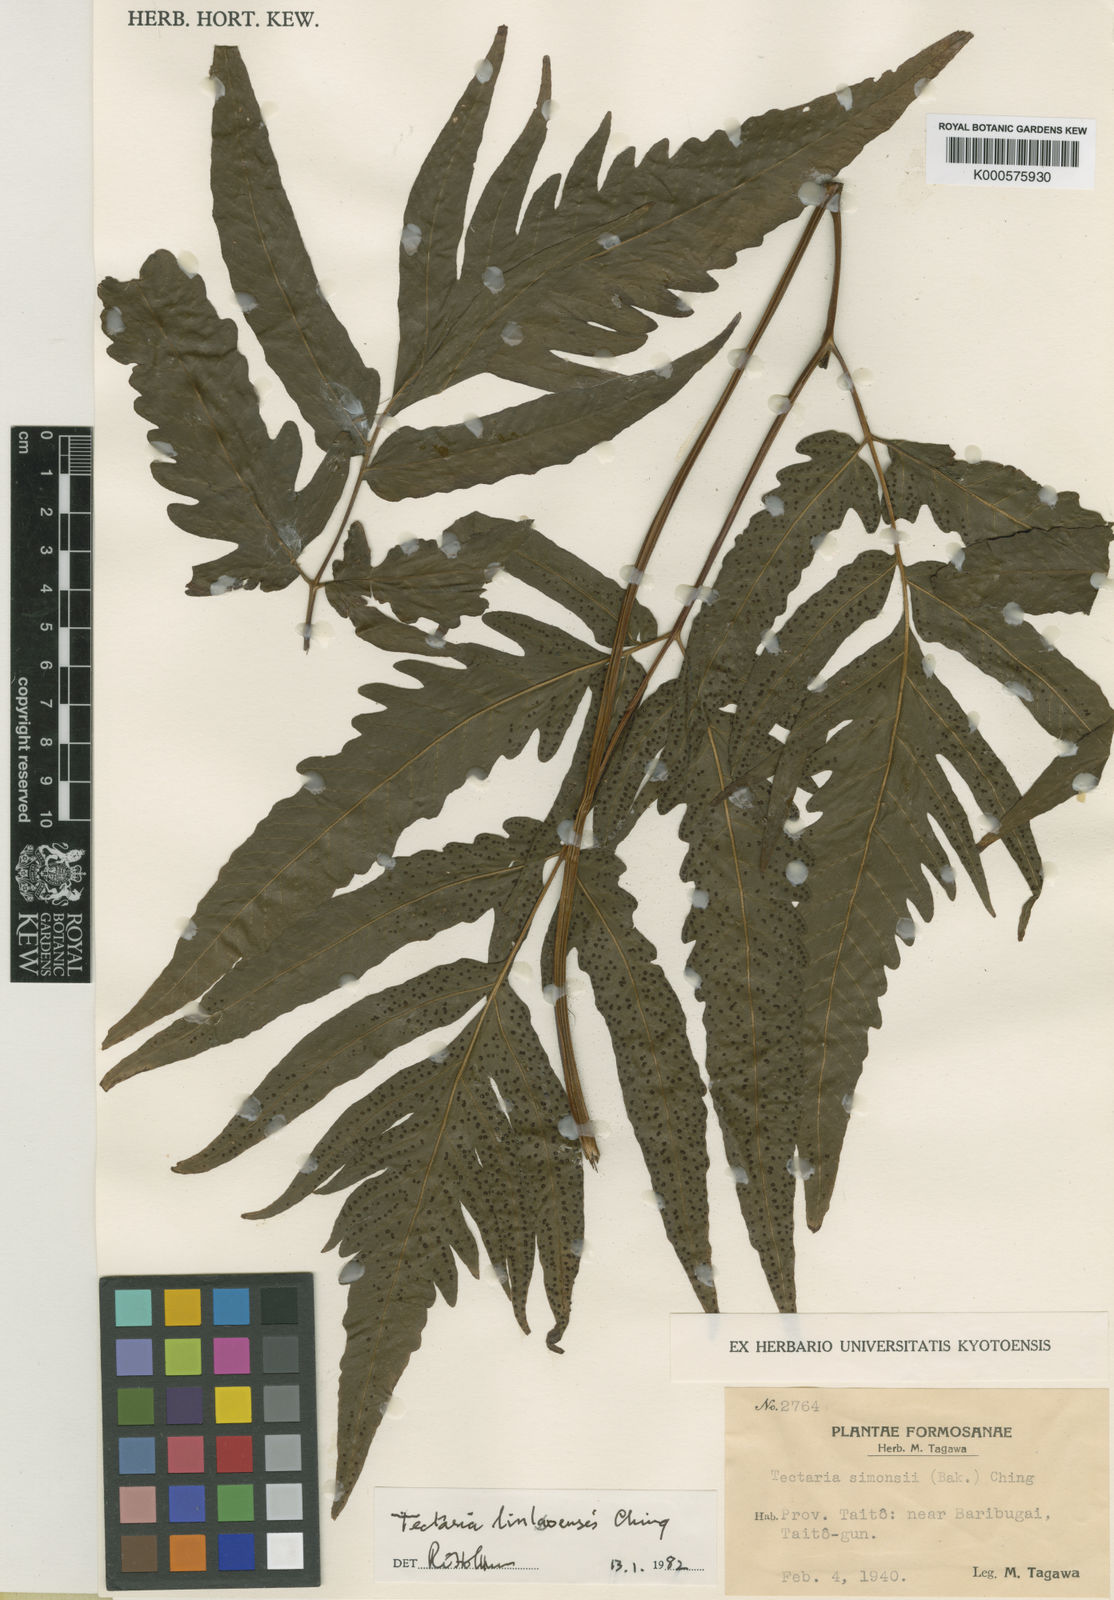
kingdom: Plantae
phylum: Tracheophyta
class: Polypodiopsida
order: Polypodiales
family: Tectariaceae
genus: Tectaria
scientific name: Tectaria subtriphylla
